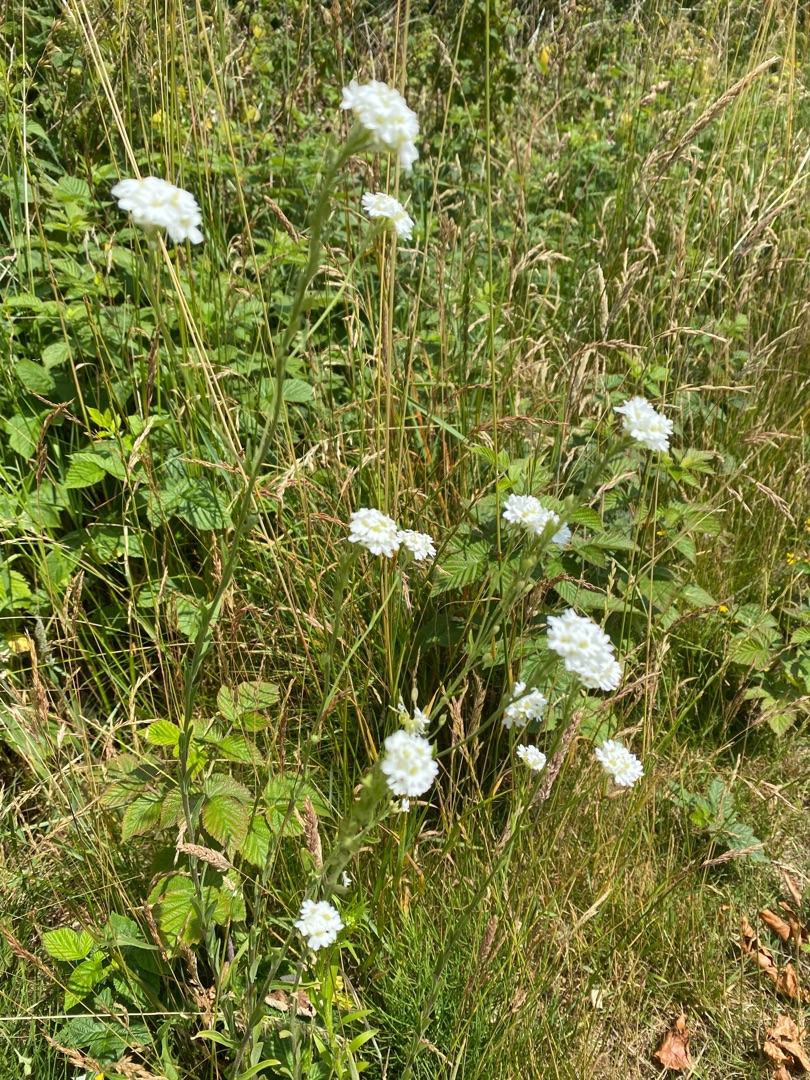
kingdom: Plantae
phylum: Tracheophyta
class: Magnoliopsida
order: Brassicales
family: Brassicaceae
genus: Berteroa
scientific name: Berteroa incana
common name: Kløvplade
